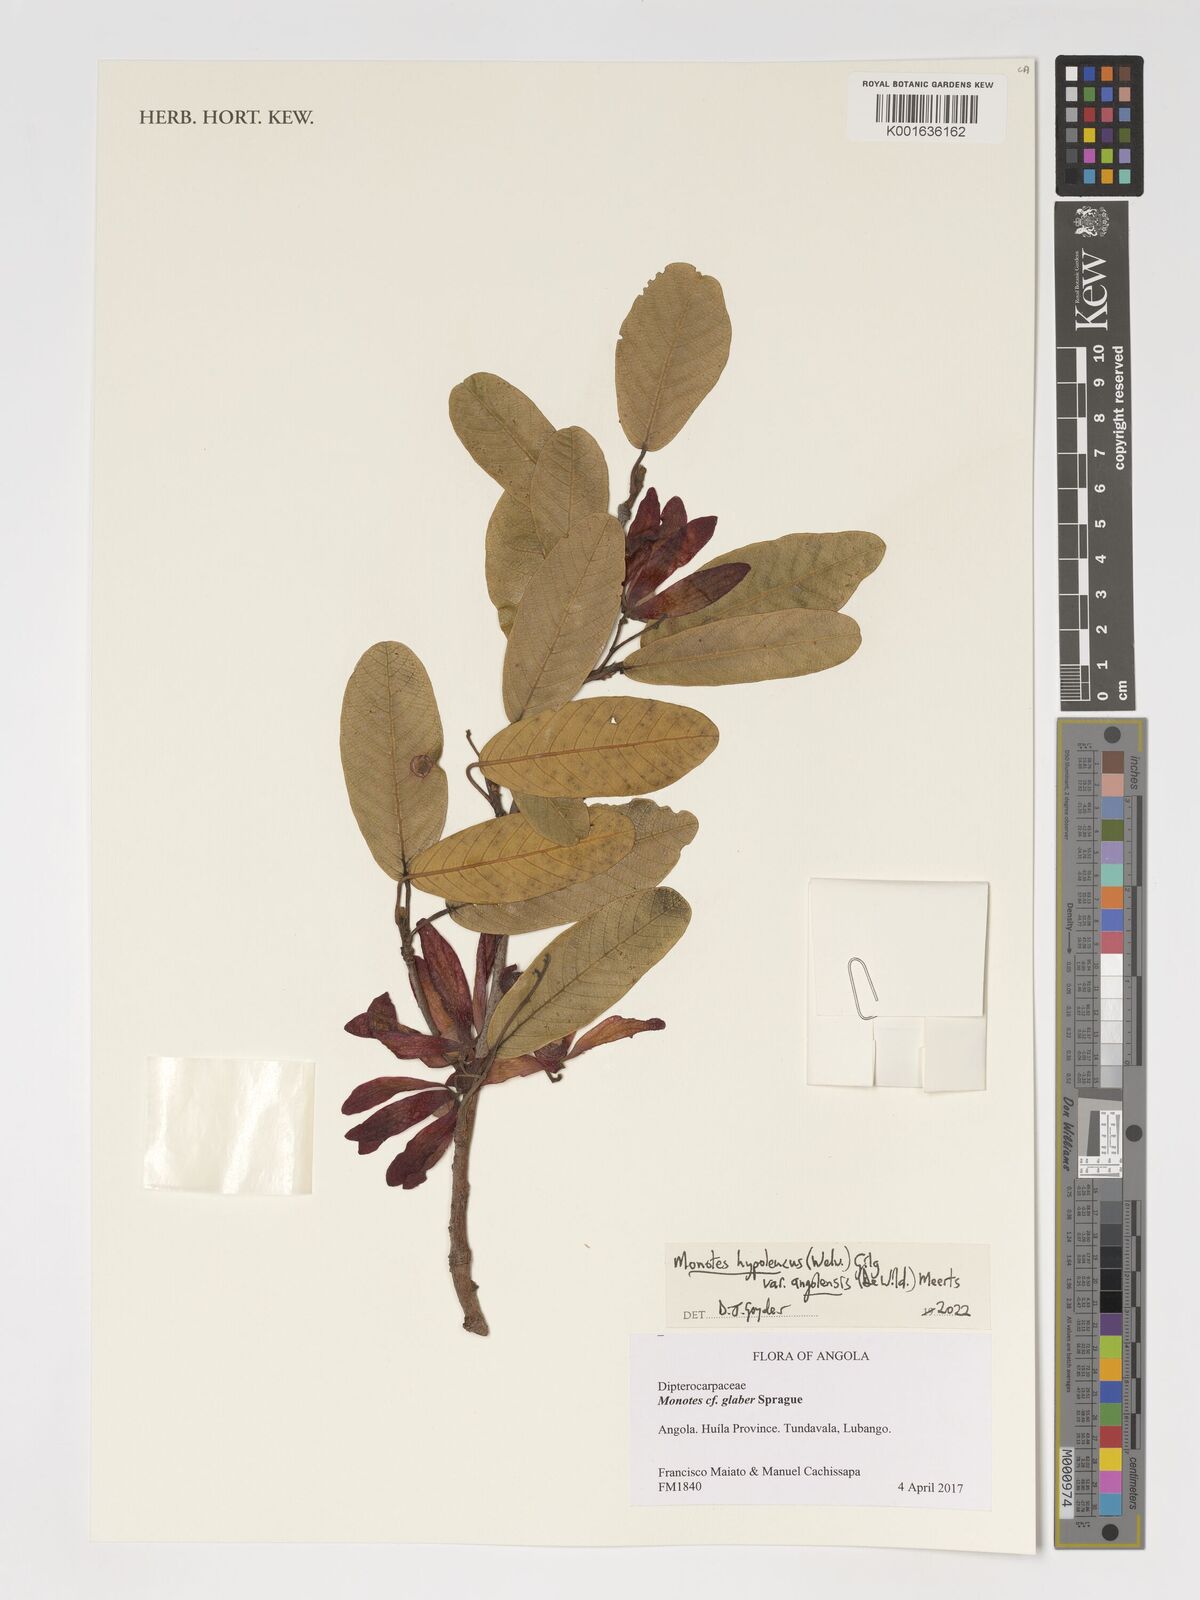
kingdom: Plantae
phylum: Tracheophyta
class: Magnoliopsida
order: Malvales
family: Dipterocarpaceae
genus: Monotes
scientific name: Monotes hypoleucus
